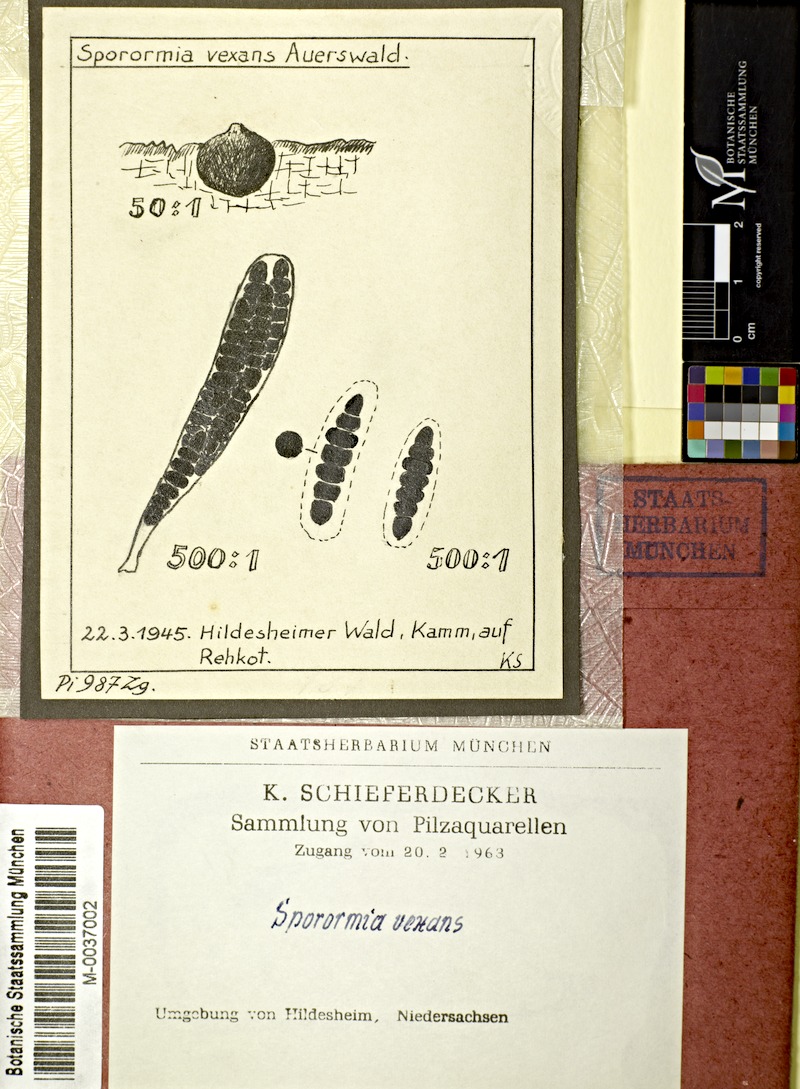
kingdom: Fungi
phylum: Ascomycota
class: Dothideomycetes
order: Pleosporales
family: Sporormiaceae
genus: Sporormiella
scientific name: Sporormiella vexans
